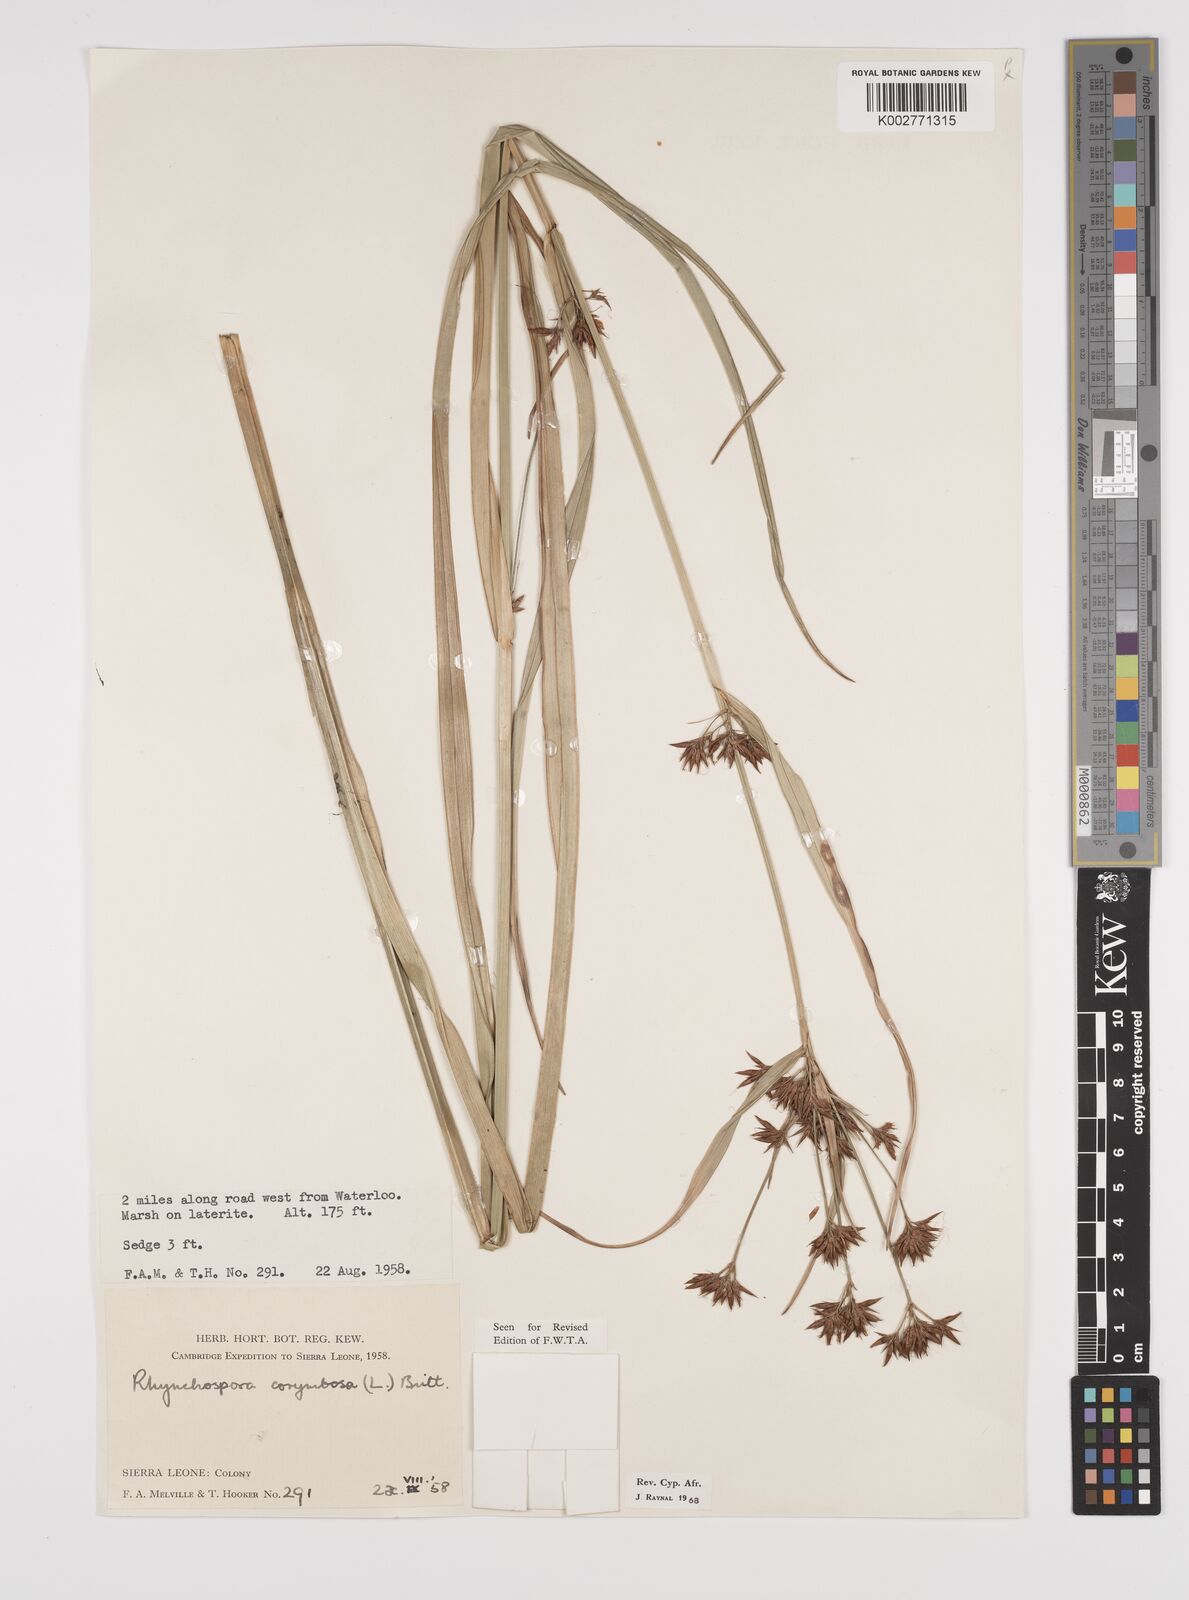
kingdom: Plantae
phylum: Tracheophyta
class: Liliopsida
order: Poales
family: Cyperaceae
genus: Rhynchospora
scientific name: Rhynchospora corymbosa
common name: Golden beak sedge
